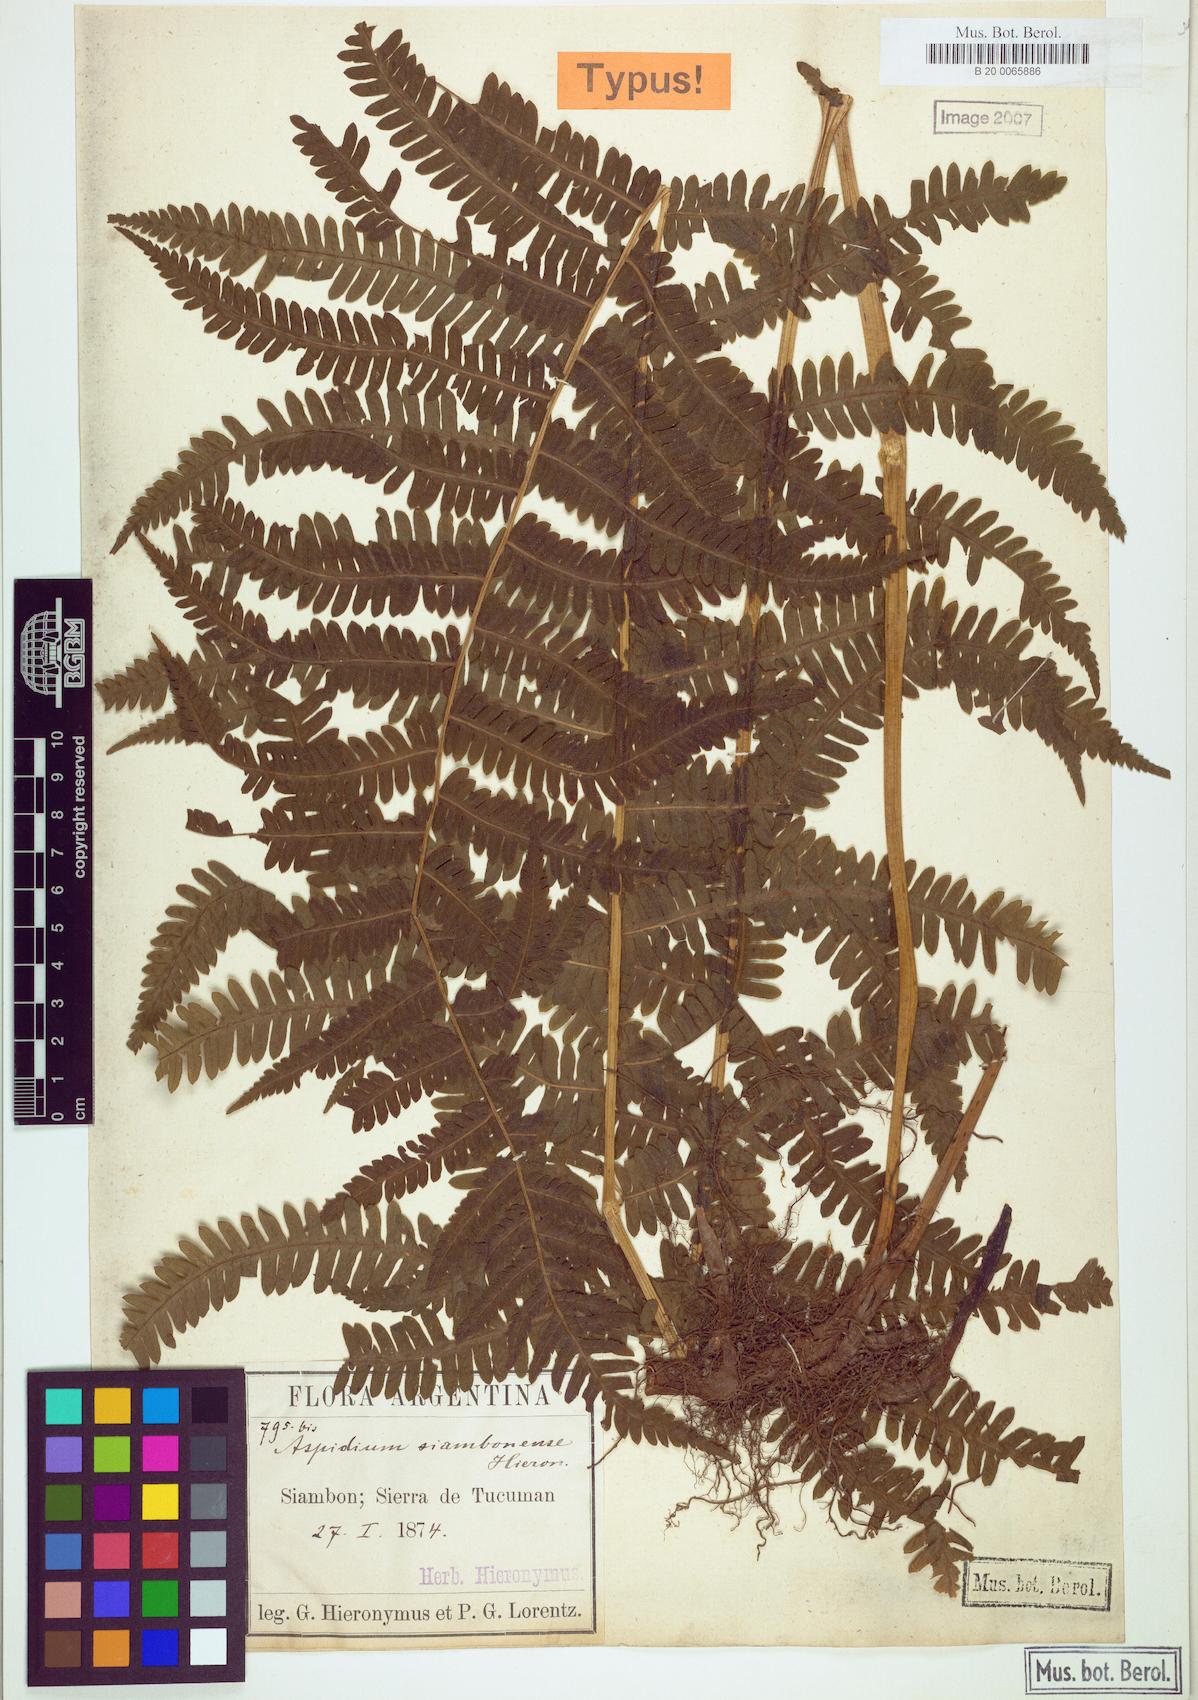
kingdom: Plantae
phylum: Tracheophyta
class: Polypodiopsida
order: Polypodiales
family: Thelypteridaceae
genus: Amauropelta
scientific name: Amauropelta achalensis
